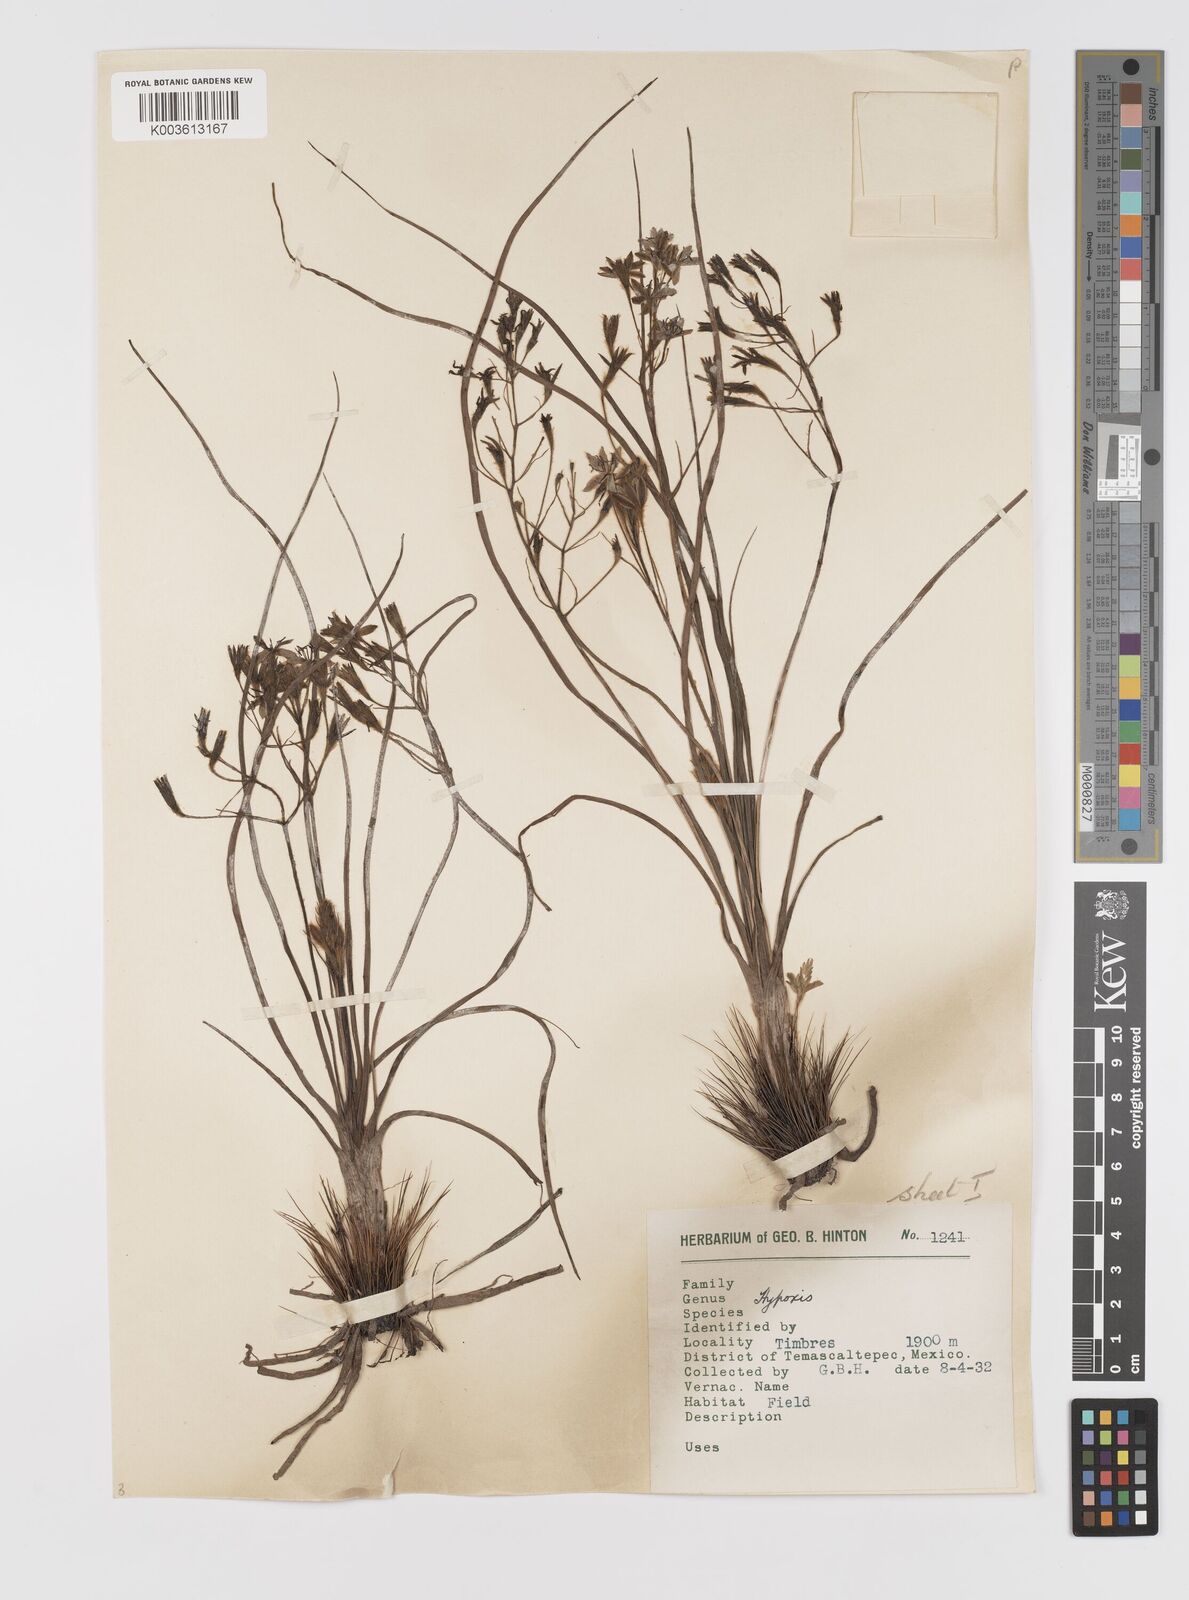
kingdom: Plantae
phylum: Tracheophyta
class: Liliopsida
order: Asparagales
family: Hypoxidaceae
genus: Hypoxis
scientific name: Hypoxis potosina
